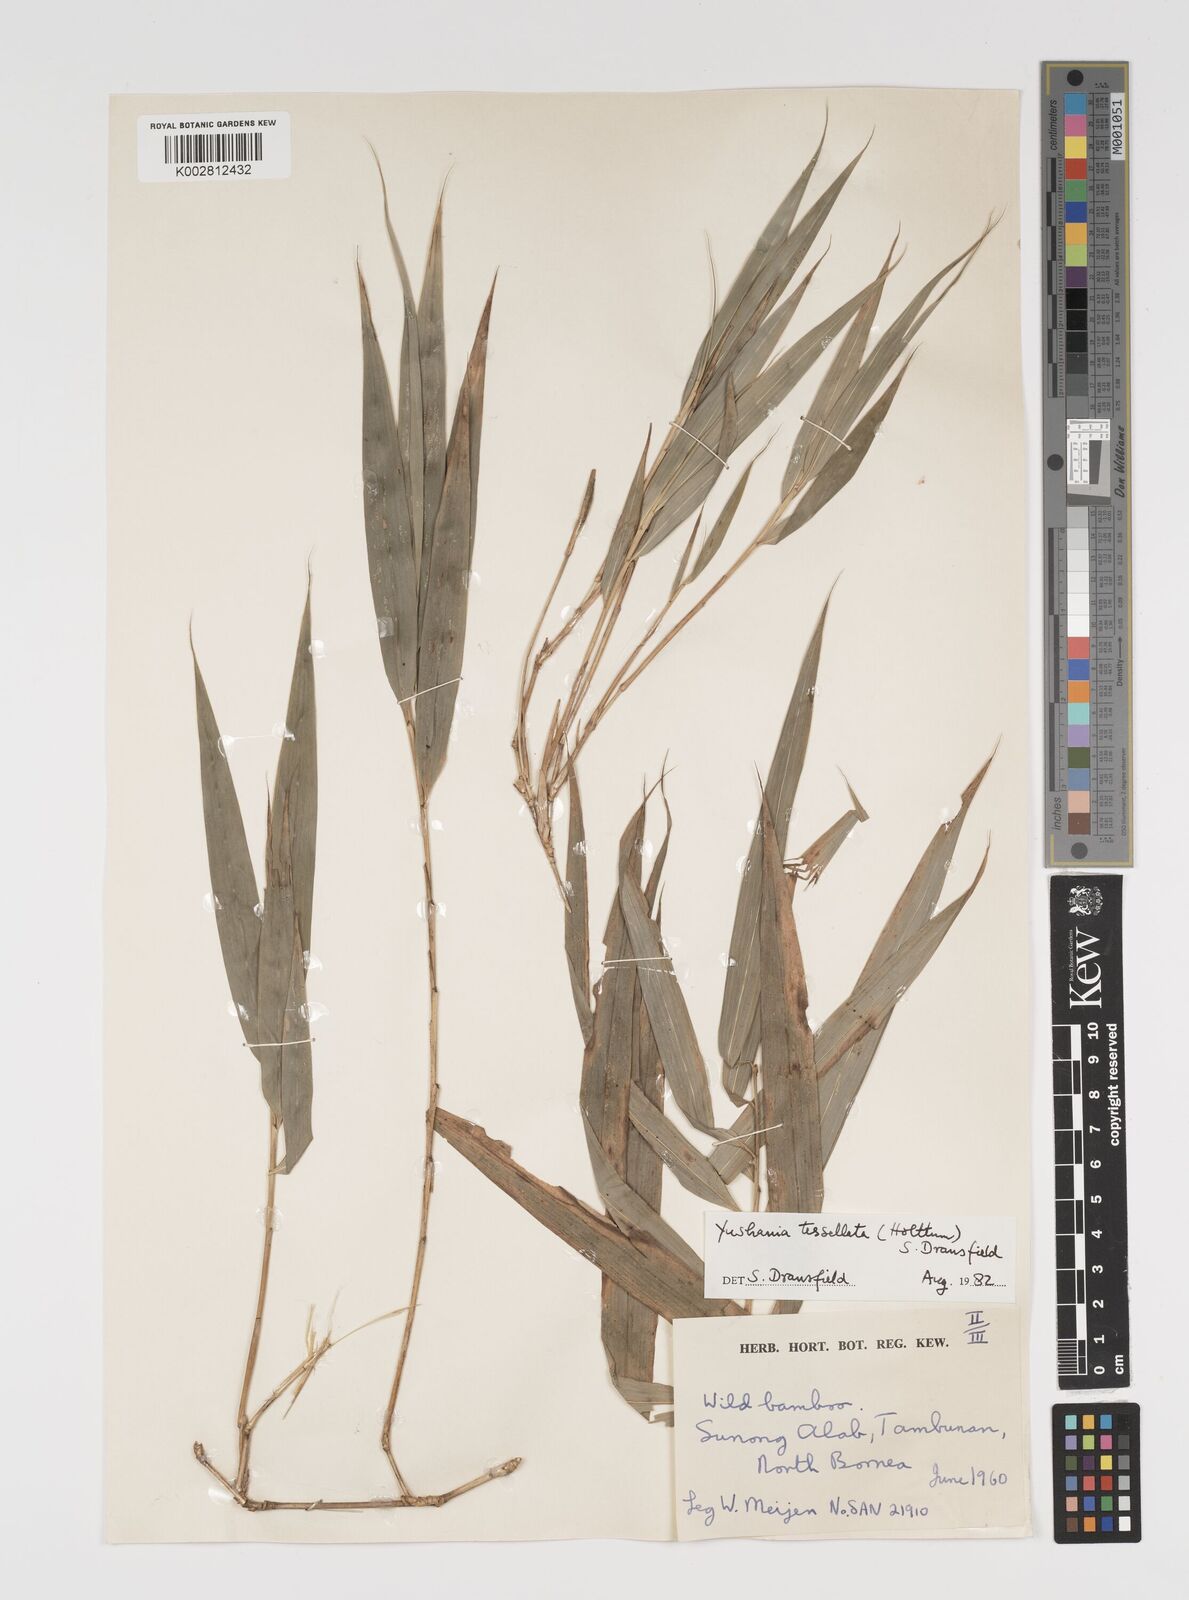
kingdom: Plantae
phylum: Tracheophyta
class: Liliopsida
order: Poales
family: Poaceae
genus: Yushania
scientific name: Yushania tessellata
